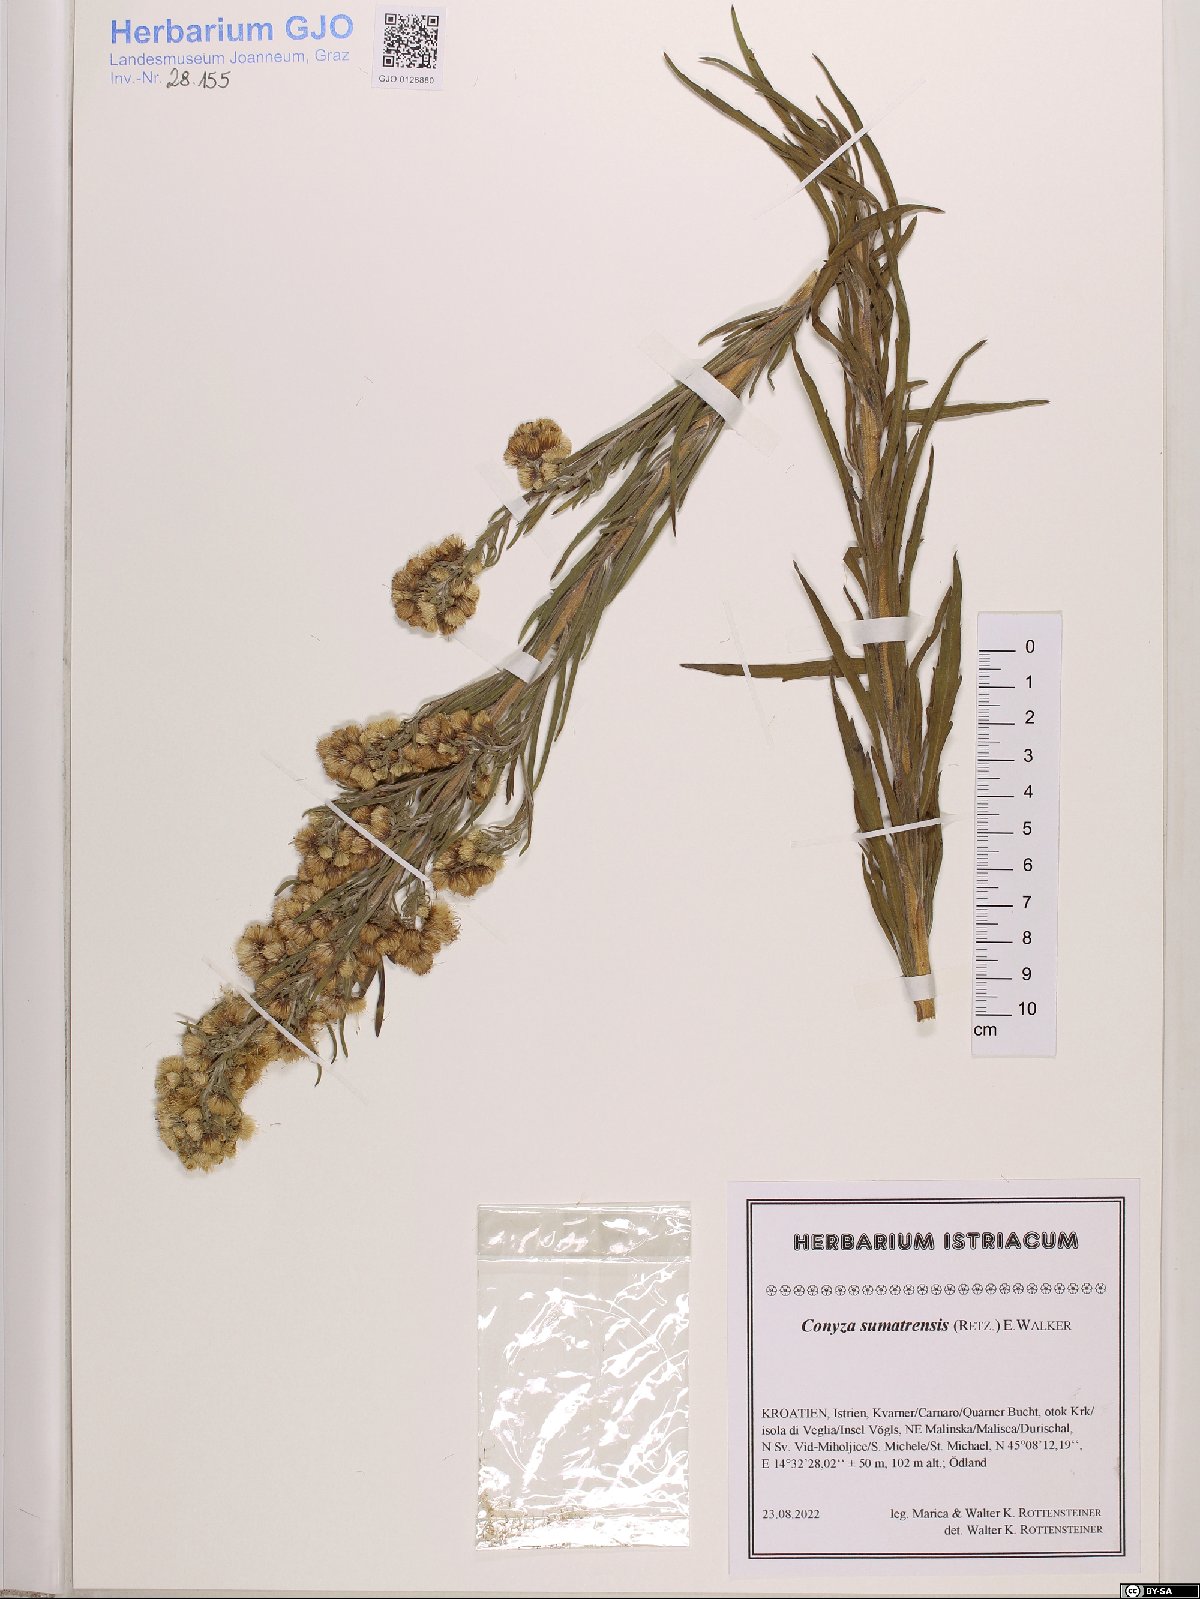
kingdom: Plantae
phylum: Tracheophyta
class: Magnoliopsida
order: Asterales
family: Asteraceae
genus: Erigeron
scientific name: Erigeron sumatrensis
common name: Daisy
